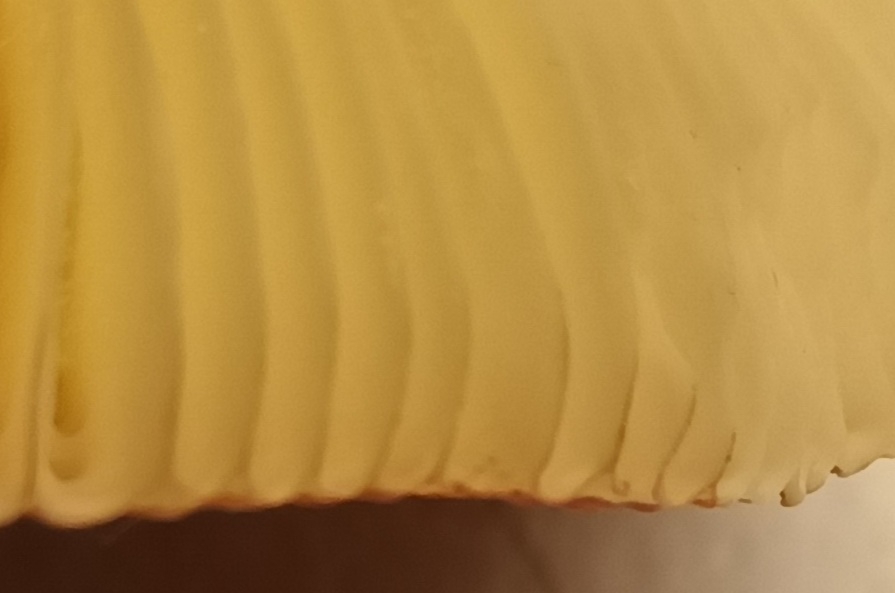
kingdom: Fungi
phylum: Basidiomycota
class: Agaricomycetes
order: Russulales
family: Russulaceae
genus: Russula
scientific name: Russula velenovskyi
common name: orangerød skørhat
